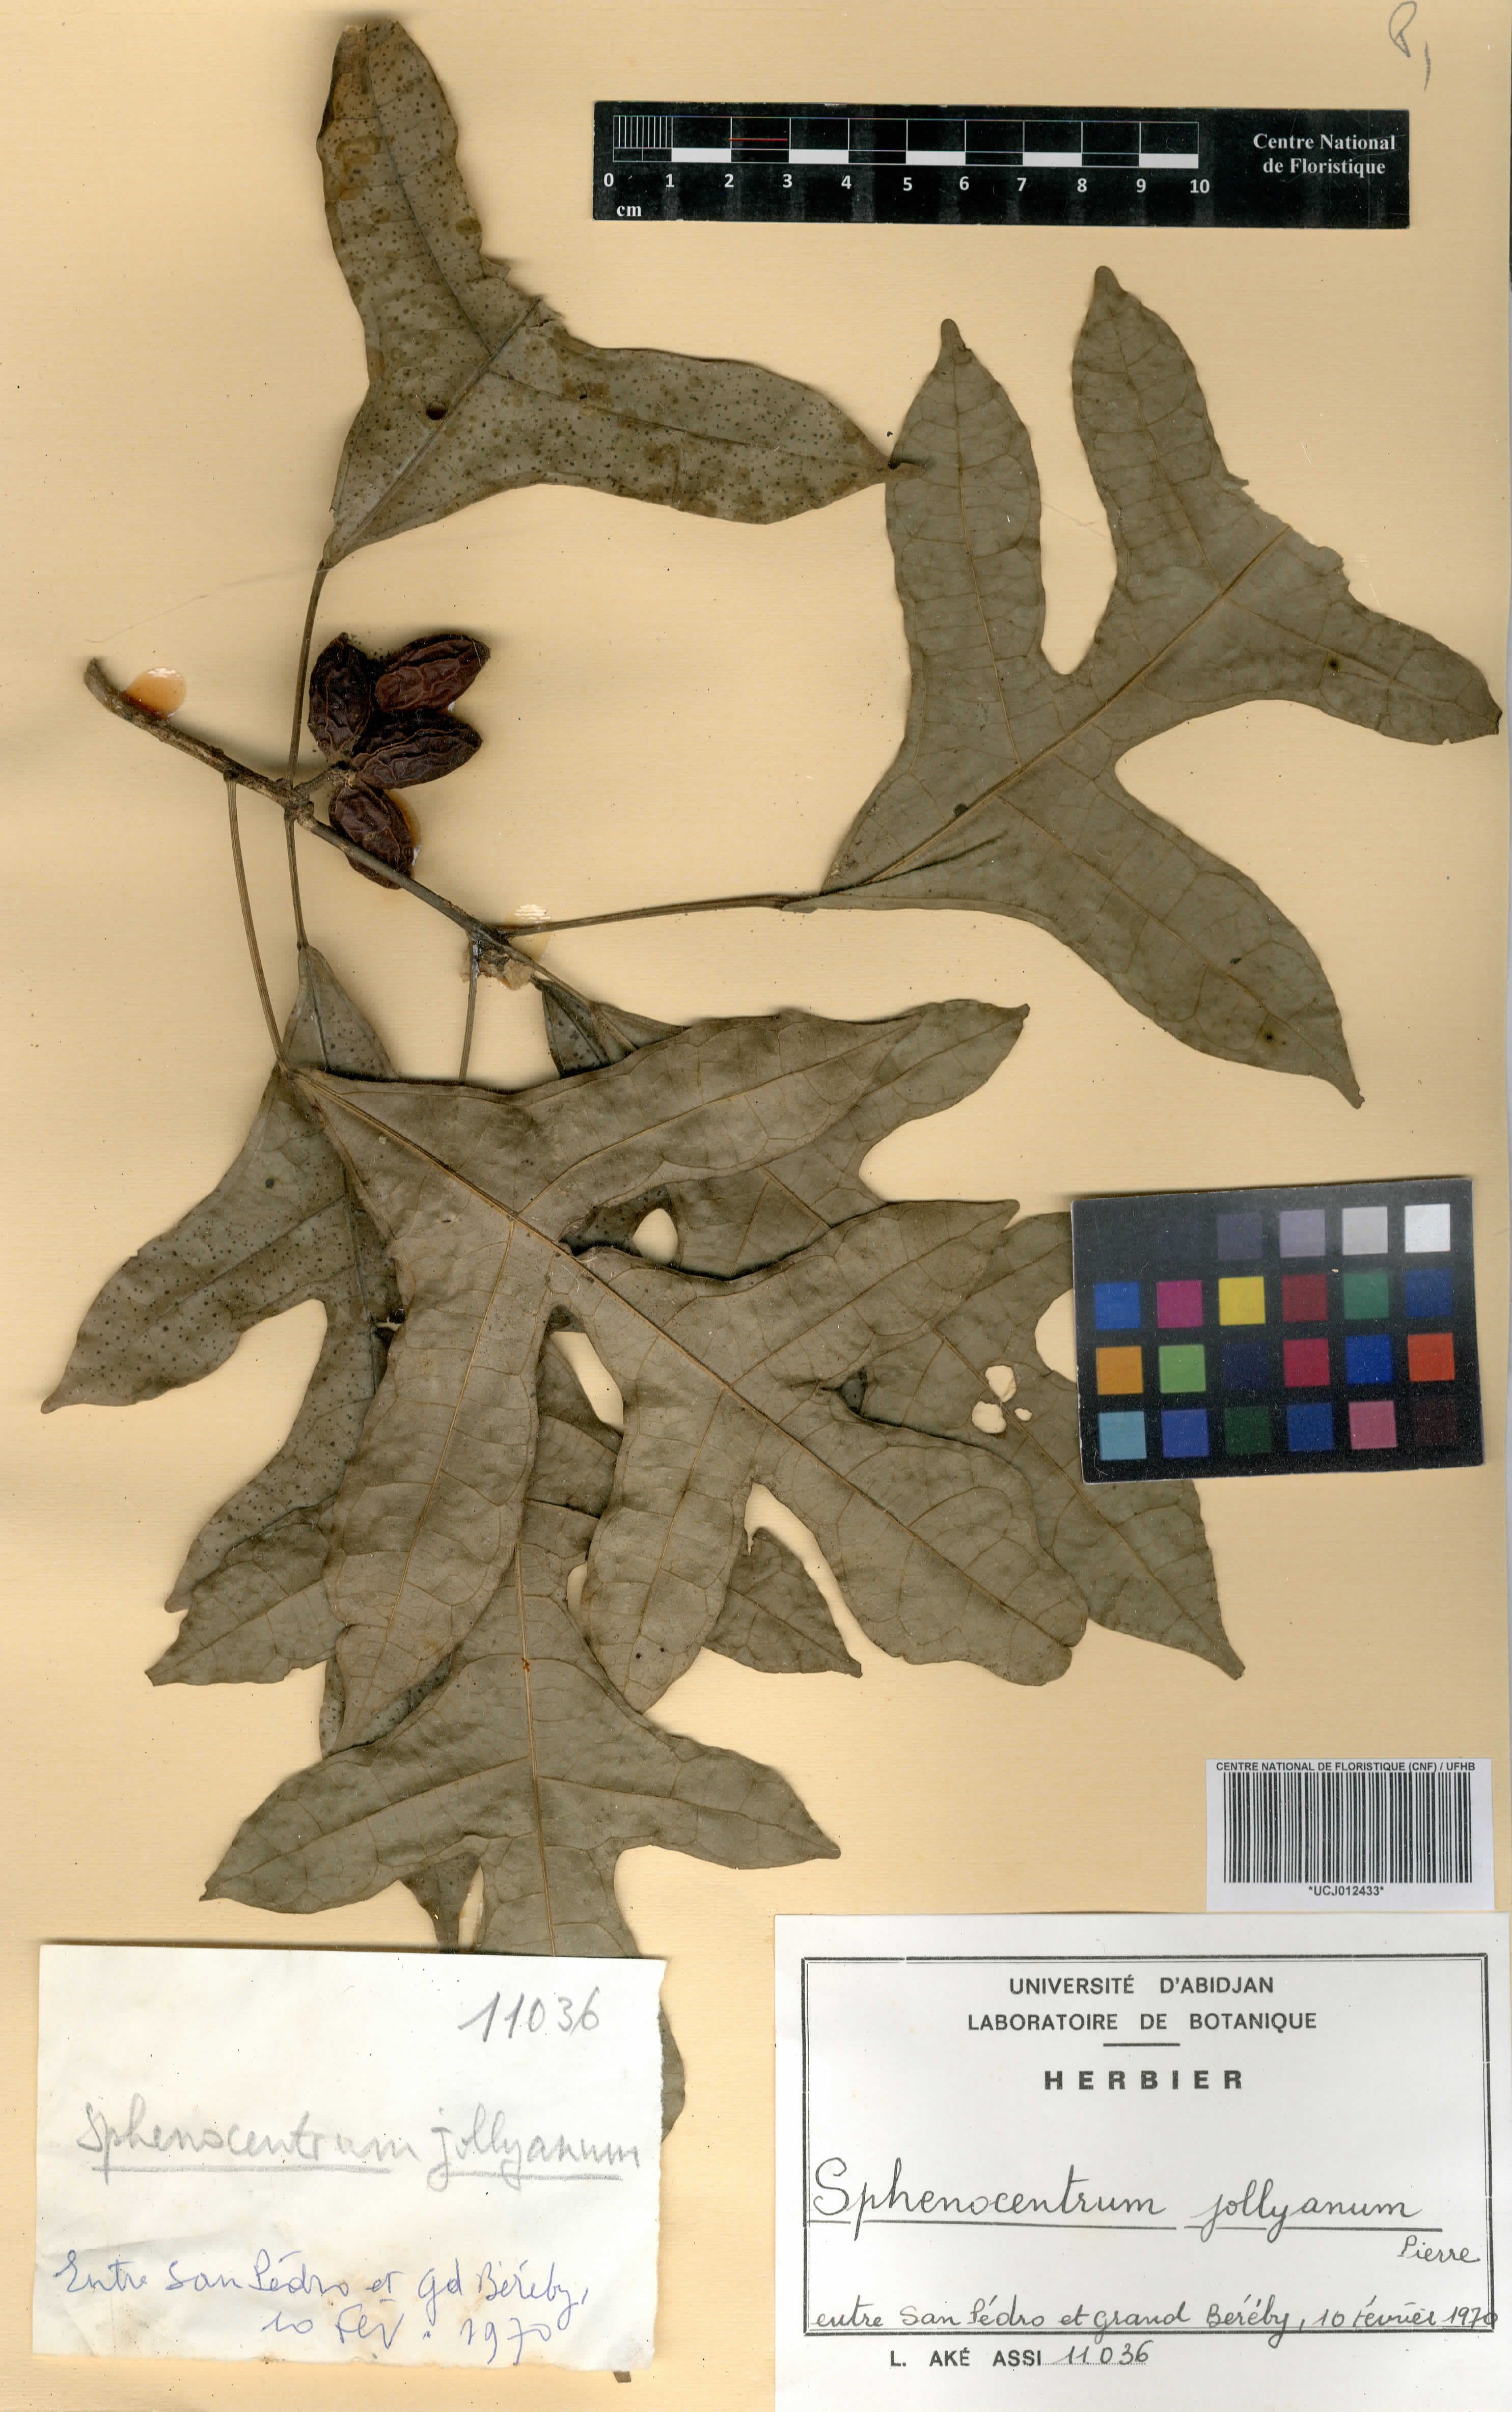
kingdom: Plantae
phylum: Tracheophyta
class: Magnoliopsida
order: Ranunculales
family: Menispermaceae
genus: Sphenocentrum
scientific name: Sphenocentrum jollyanum
